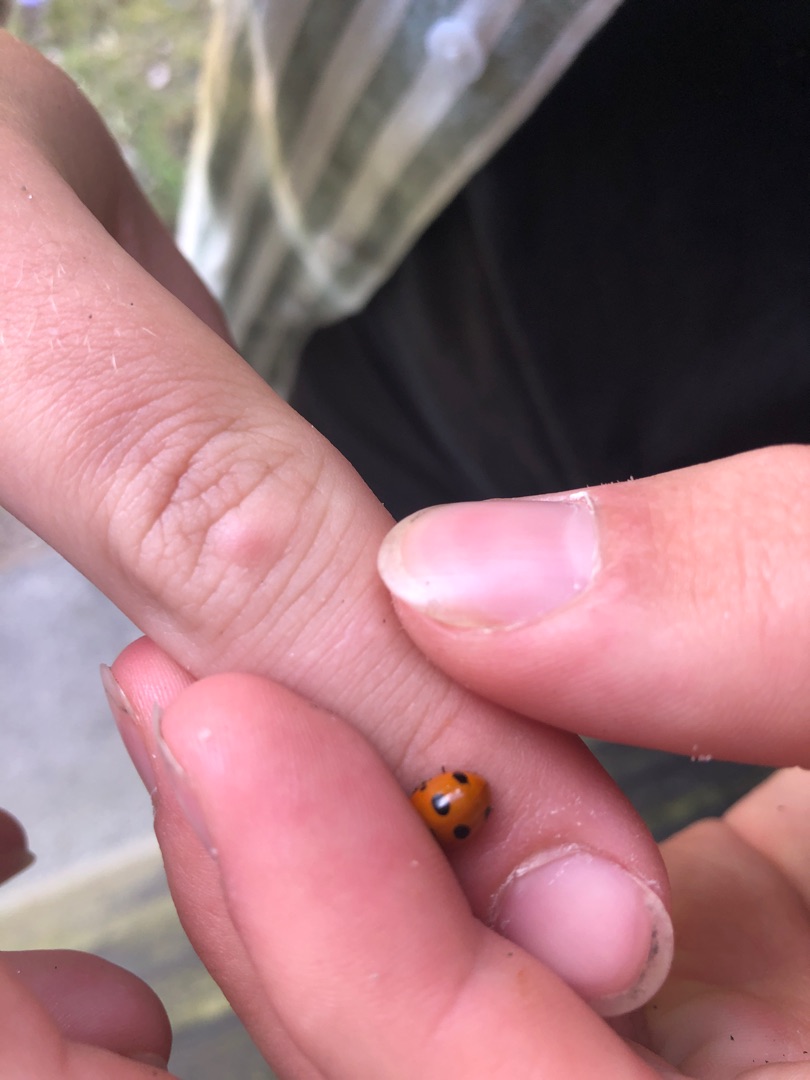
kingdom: Animalia
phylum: Arthropoda
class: Insecta
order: Coleoptera
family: Coccinellidae
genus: Coccinella
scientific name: Coccinella septempunctata
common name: Syvplettet mariehøne
